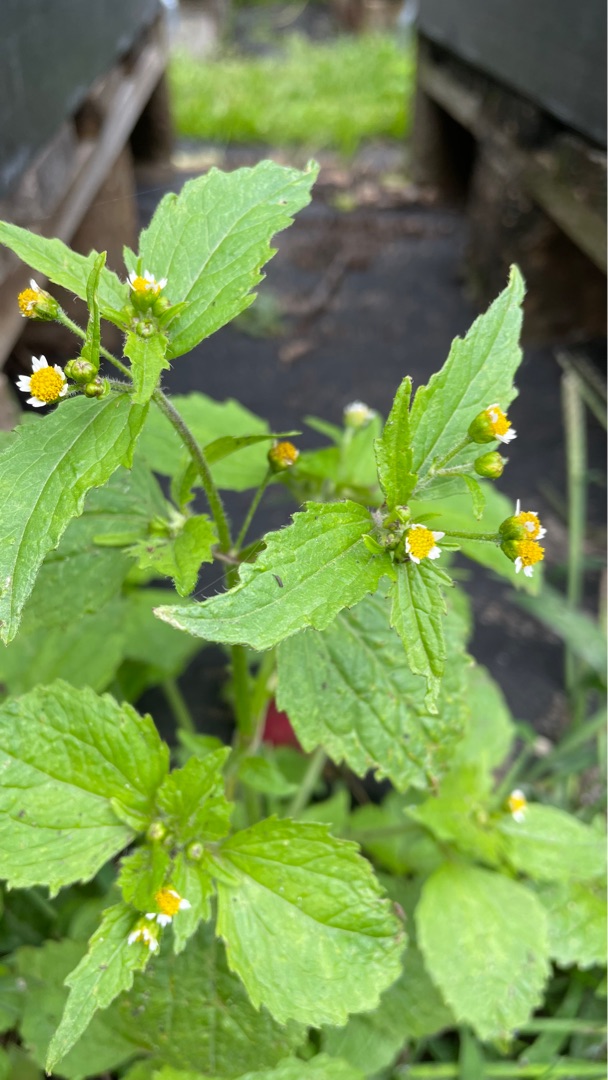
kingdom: Plantae
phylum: Tracheophyta
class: Magnoliopsida
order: Asterales
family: Asteraceae
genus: Galinsoga
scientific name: Galinsoga quadriradiata
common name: Kirtel-kortstråle
